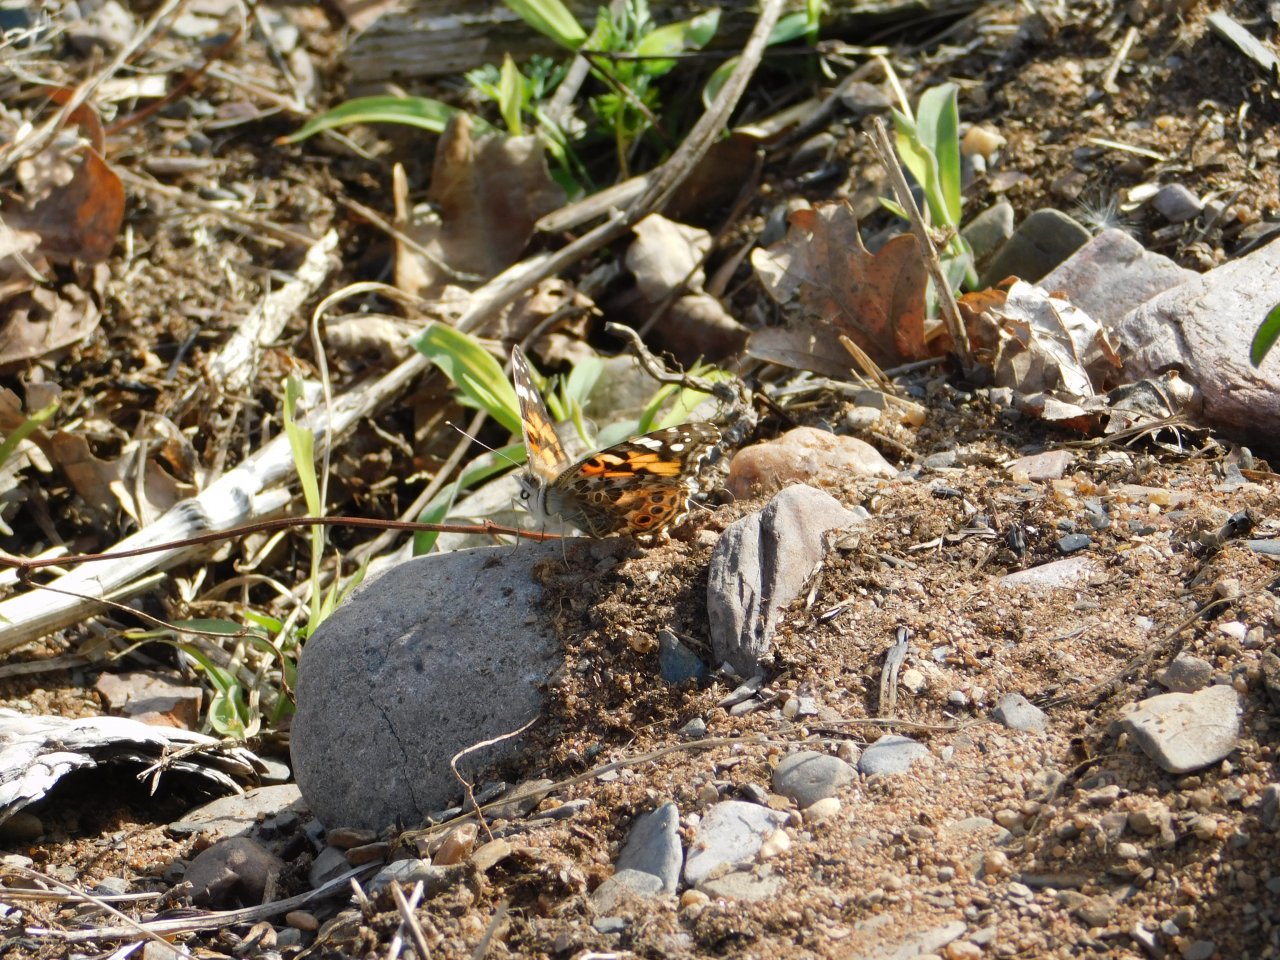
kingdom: Animalia
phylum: Arthropoda
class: Insecta
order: Lepidoptera
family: Nymphalidae
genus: Vanessa
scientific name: Vanessa cardui
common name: Painted Lady
